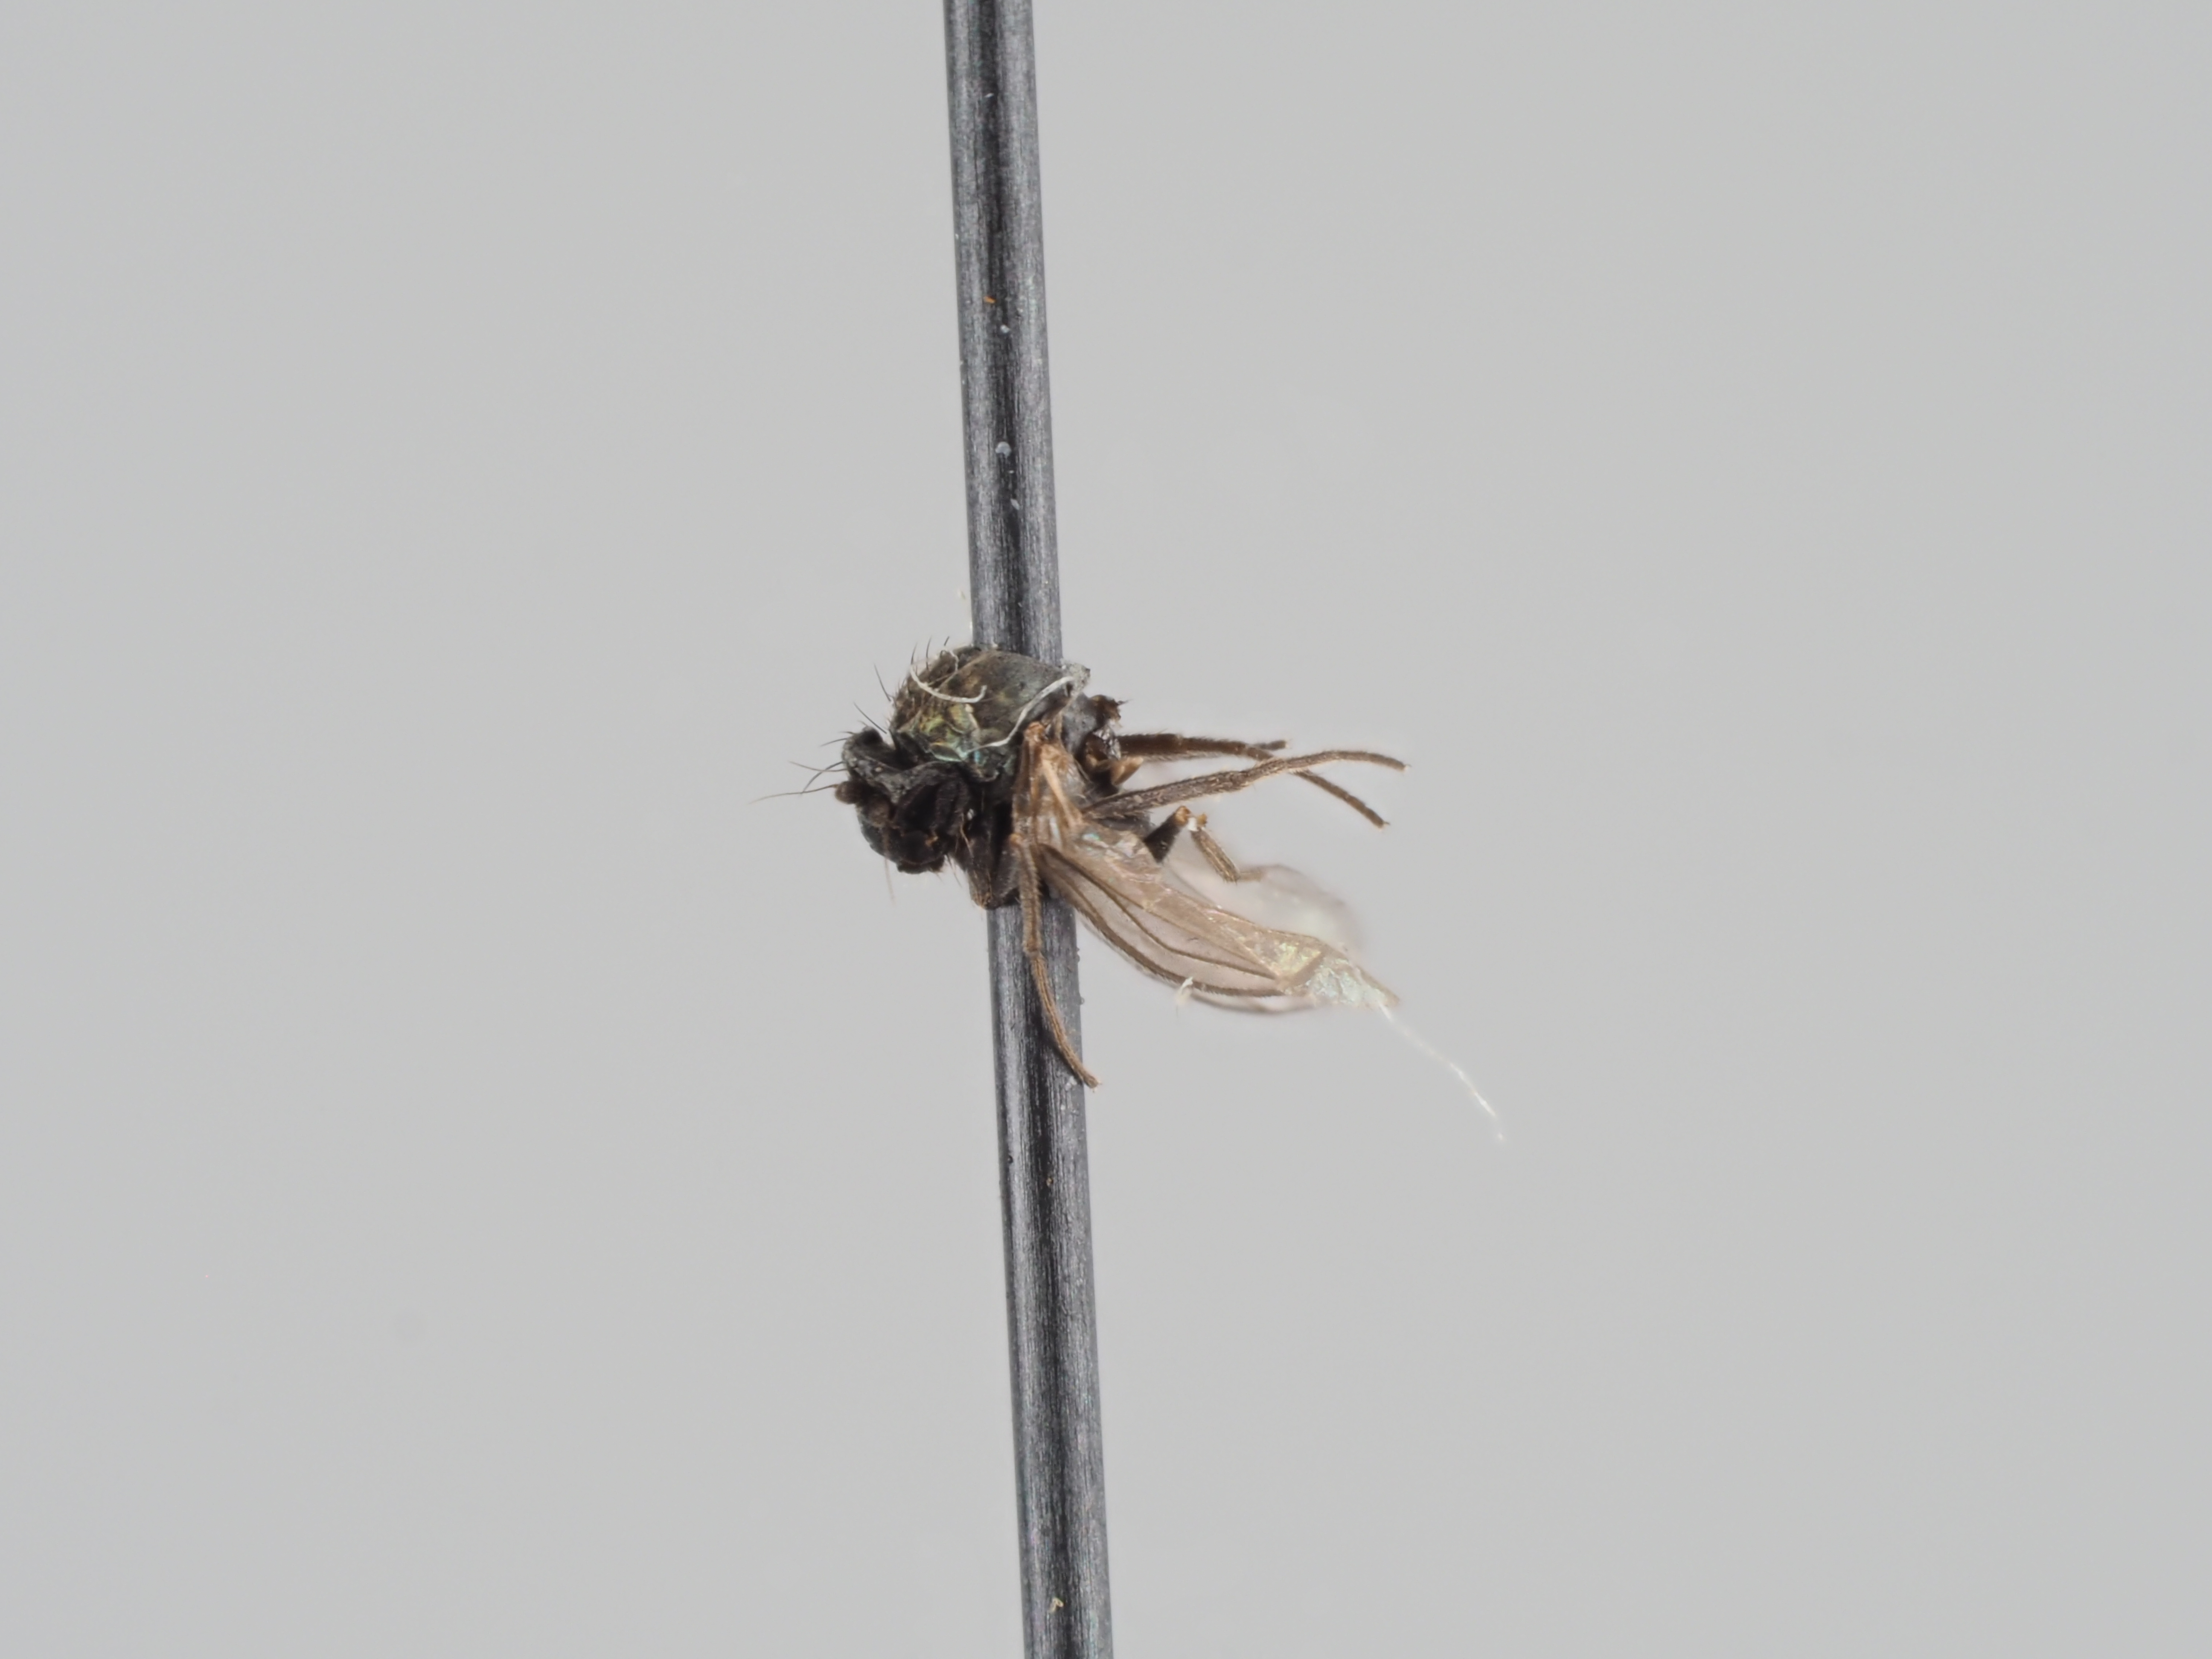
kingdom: Animalia
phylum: Arthropoda
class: Insecta
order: Diptera
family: Dolichopodidae
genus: Medetera
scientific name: Medetera jugalis
